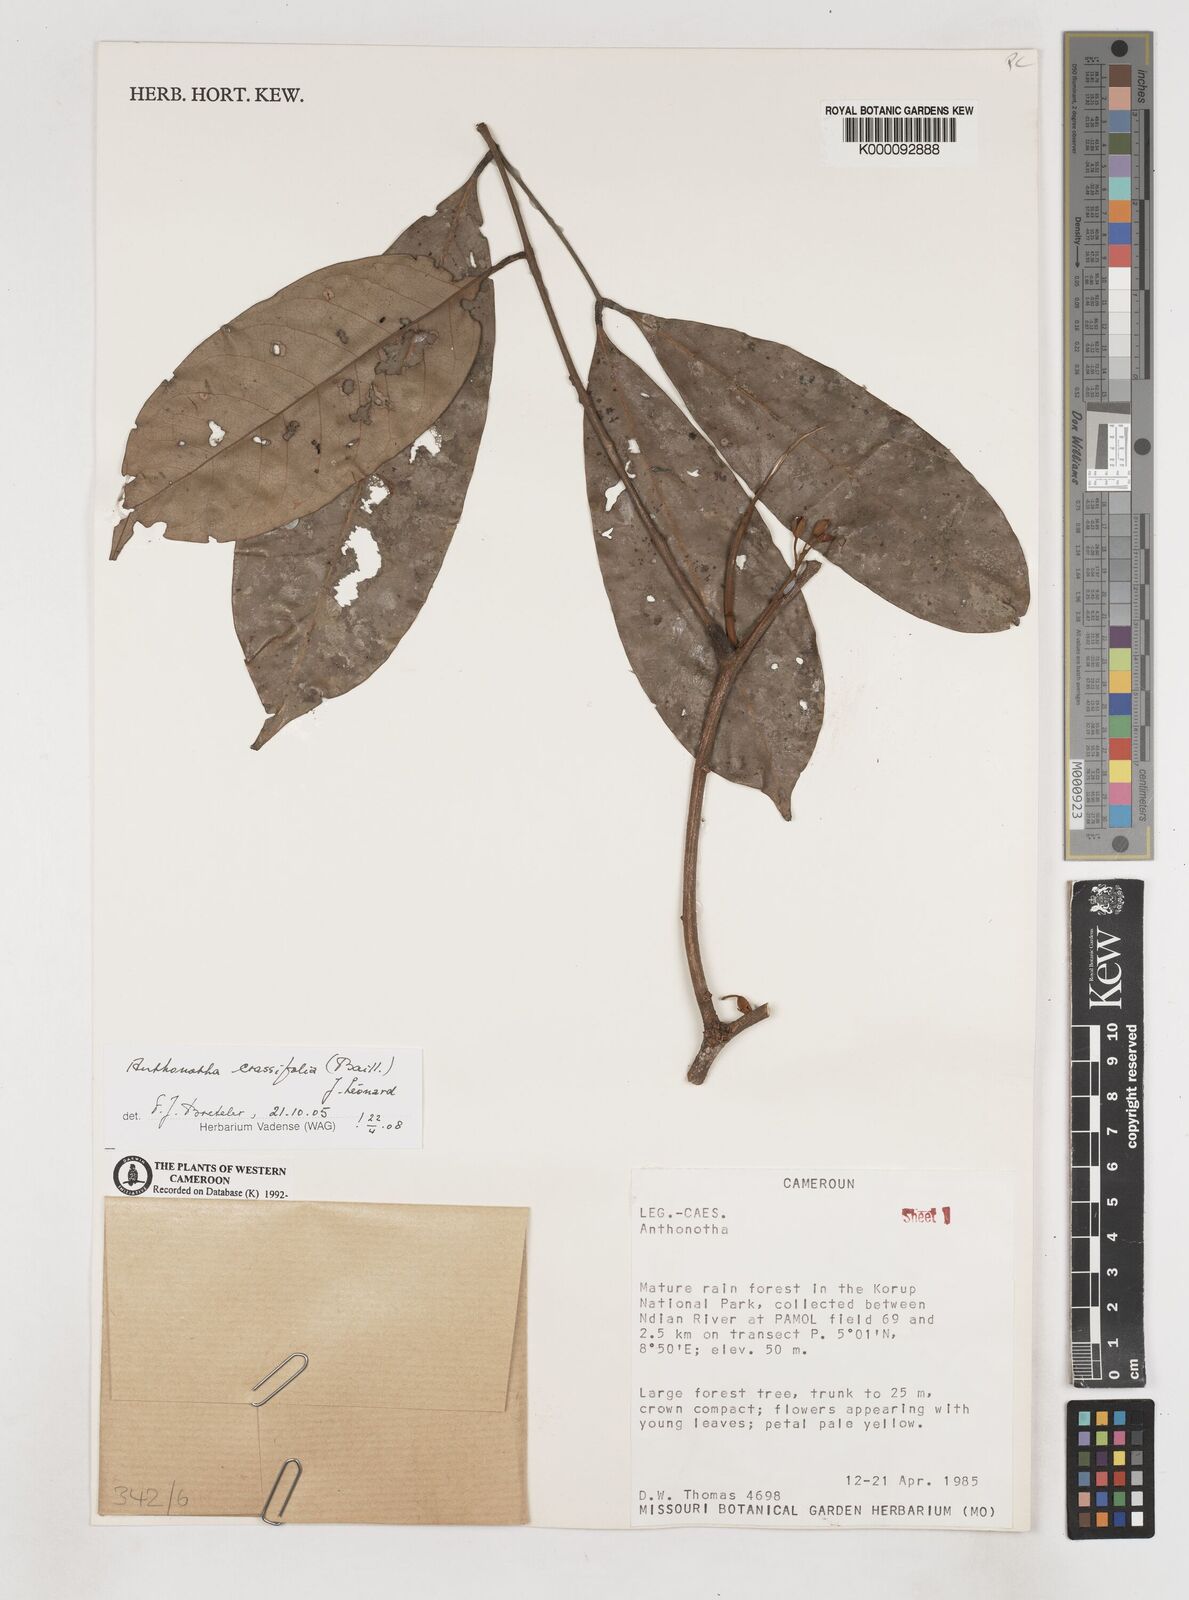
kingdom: Plantae
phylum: Tracheophyta
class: Magnoliopsida
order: Fabales
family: Fabaceae
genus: Anthonotha
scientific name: Anthonotha
